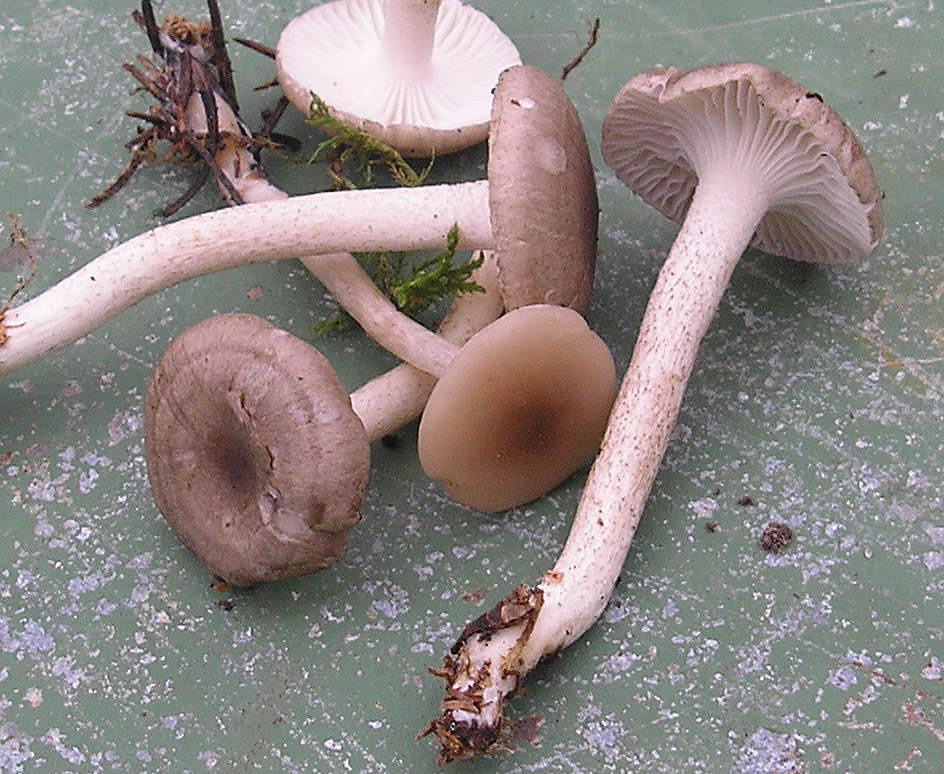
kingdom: Fungi
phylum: Basidiomycota
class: Agaricomycetes
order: Agaricales
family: Hygrophoraceae
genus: Hygrophorus
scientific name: Hygrophorus pustulatus
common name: mørkprikket sneglehat
